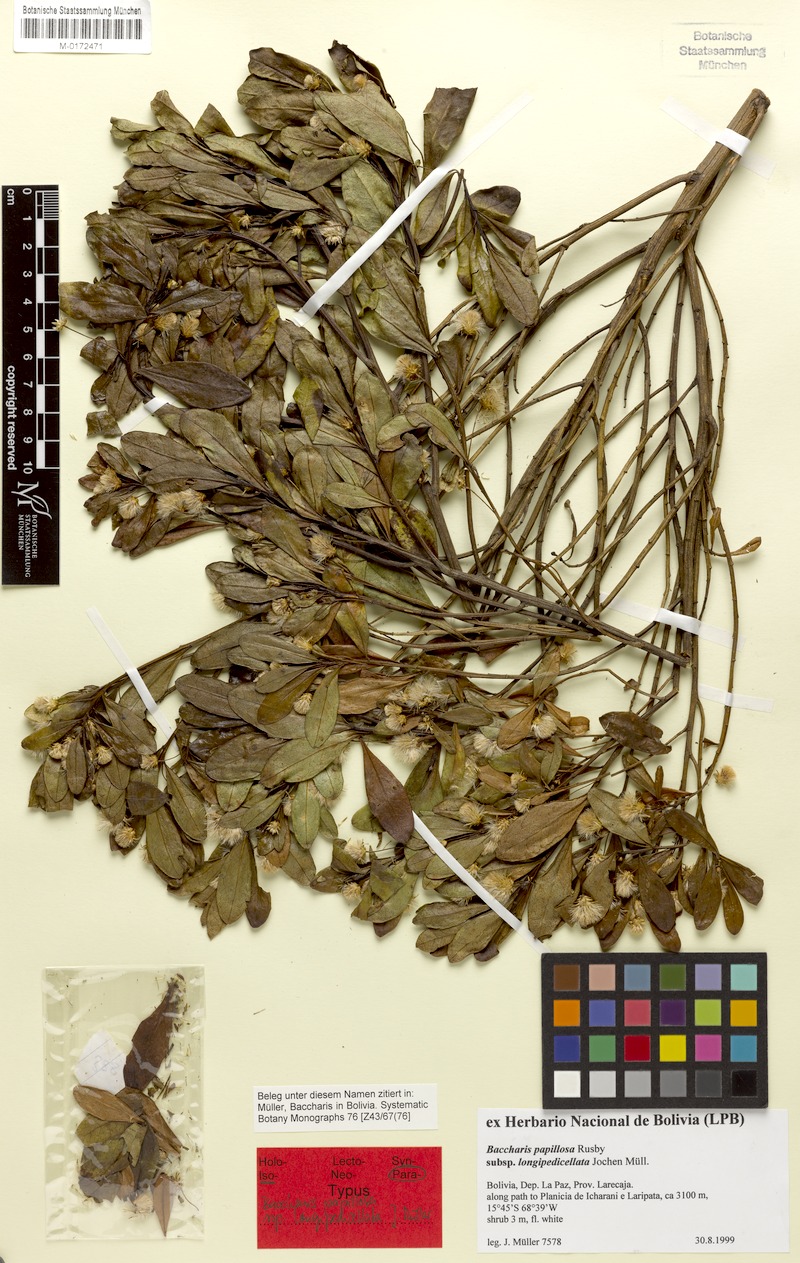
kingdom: Plantae
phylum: Tracheophyta
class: Magnoliopsida
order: Asterales
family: Asteraceae
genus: Baccharis
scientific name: Baccharis longipedicellata
